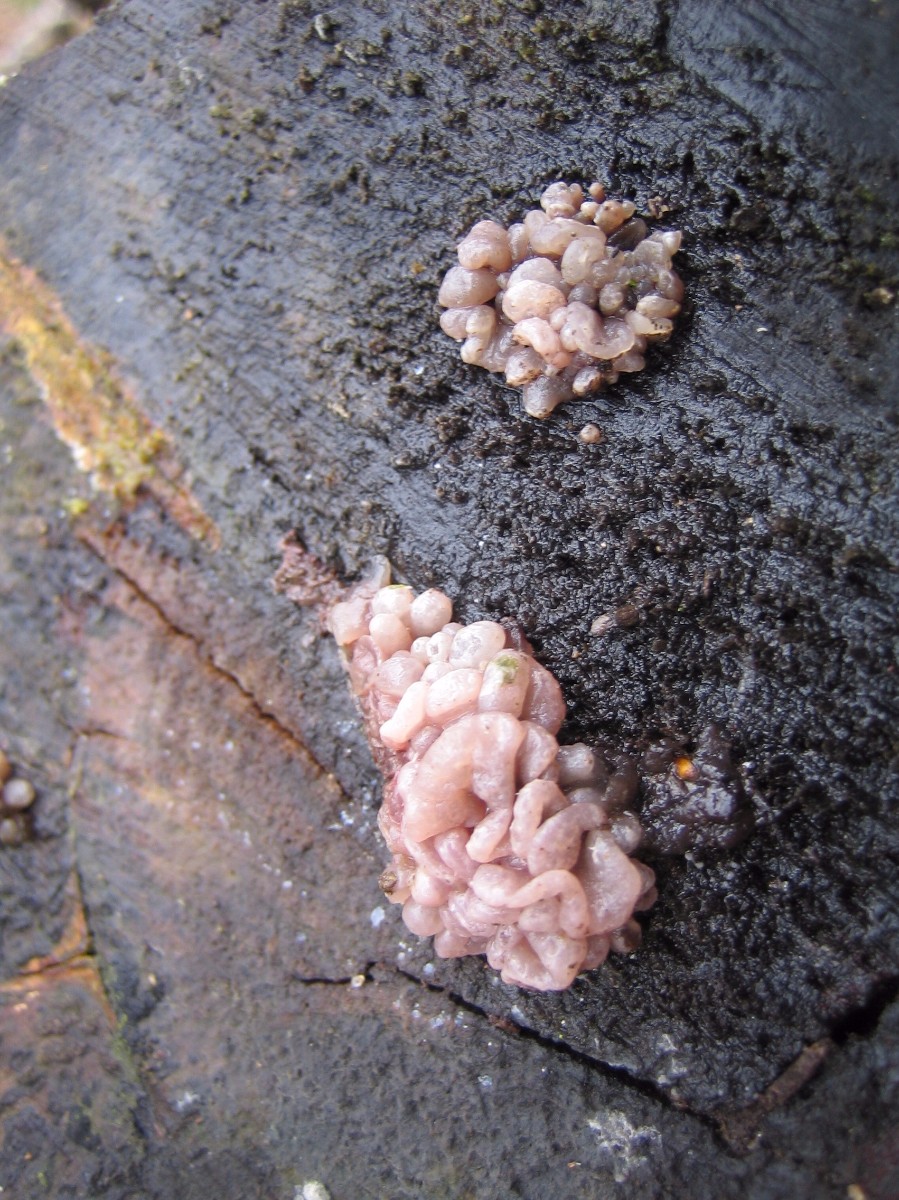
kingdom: Fungi
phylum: Ascomycota
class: Leotiomycetes
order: Helotiales
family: Gelatinodiscaceae
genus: Ascocoryne
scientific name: Ascocoryne sarcoides
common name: rødlilla sejskive
